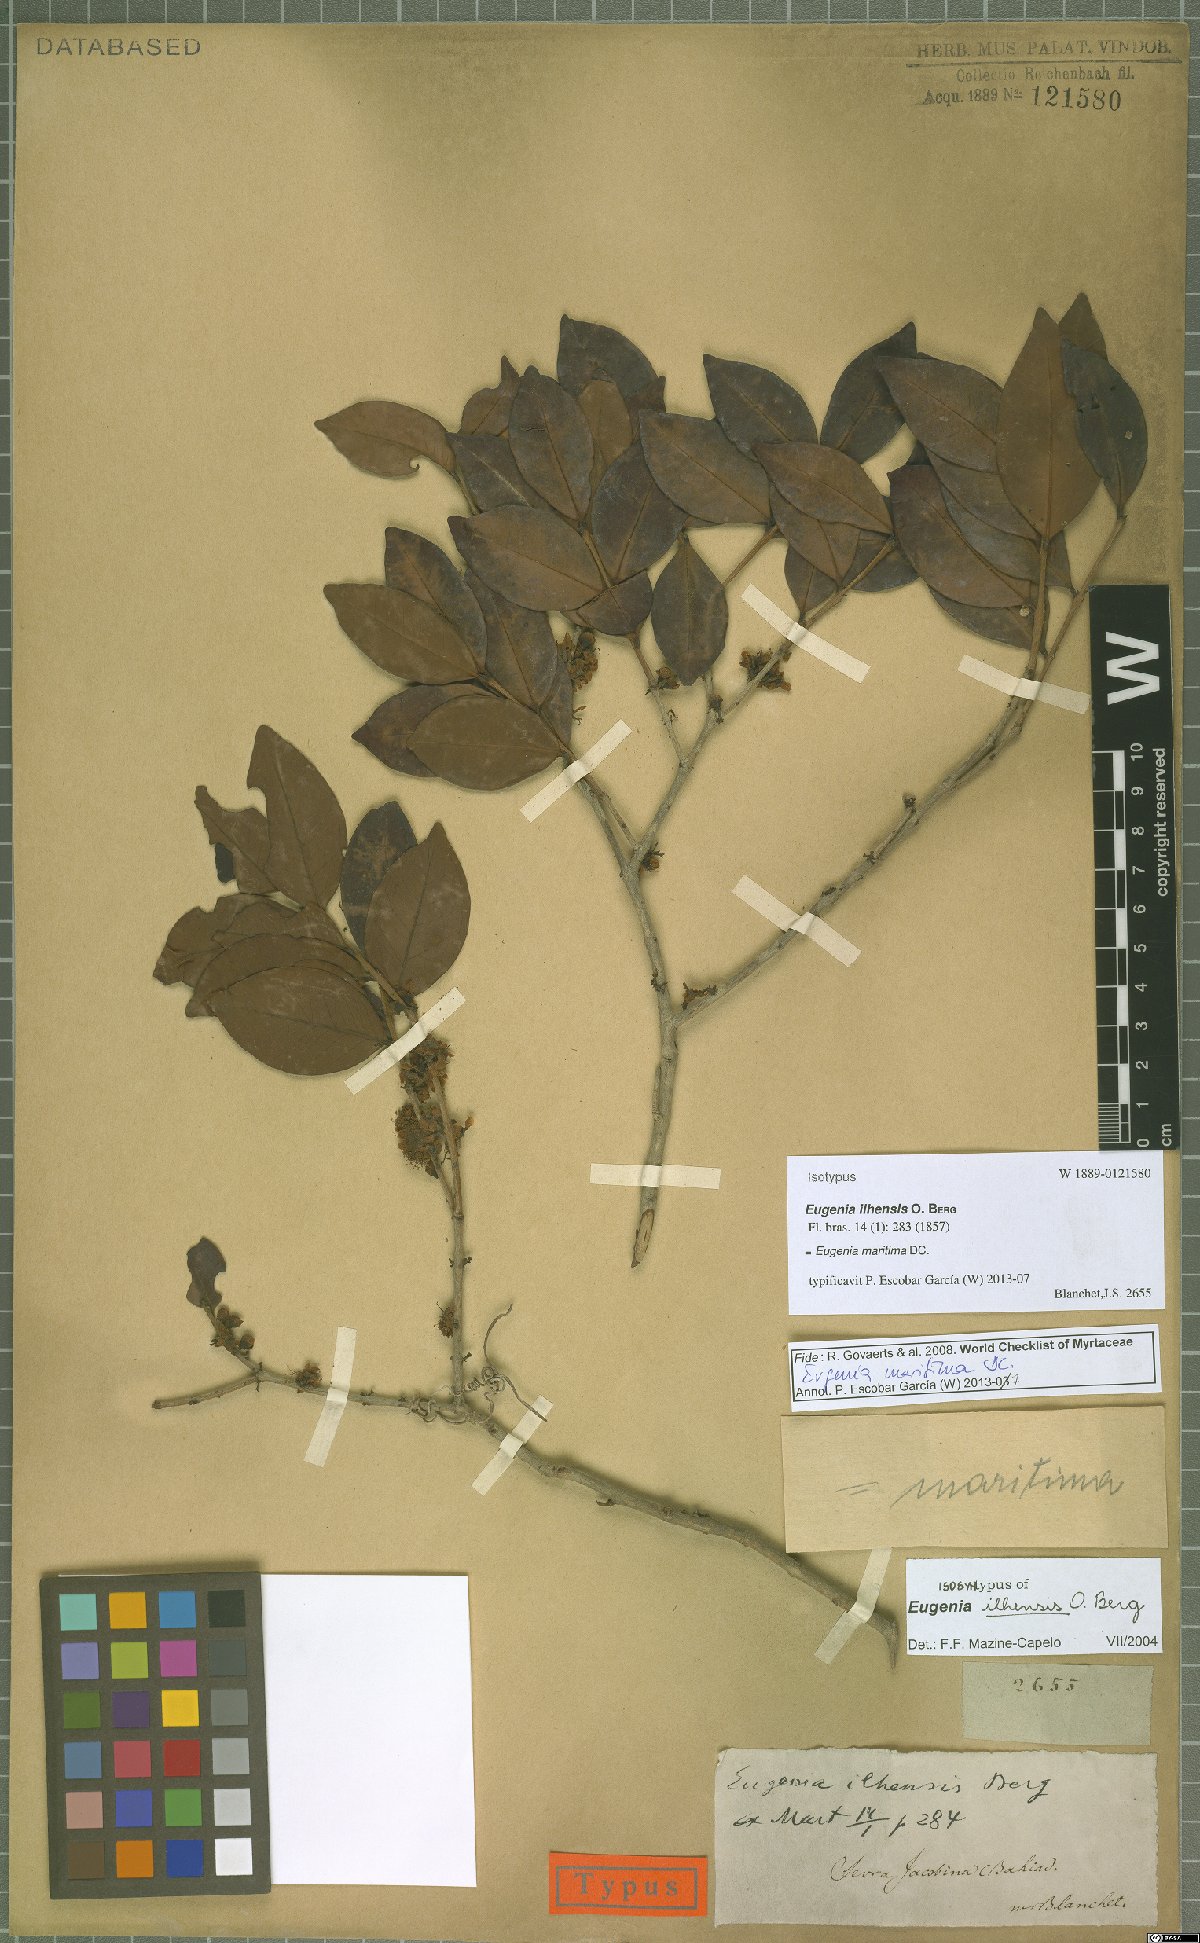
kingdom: Plantae
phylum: Tracheophyta
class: Magnoliopsida
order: Myrtales
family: Myrtaceae
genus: Eugenia
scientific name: Eugenia maritima
